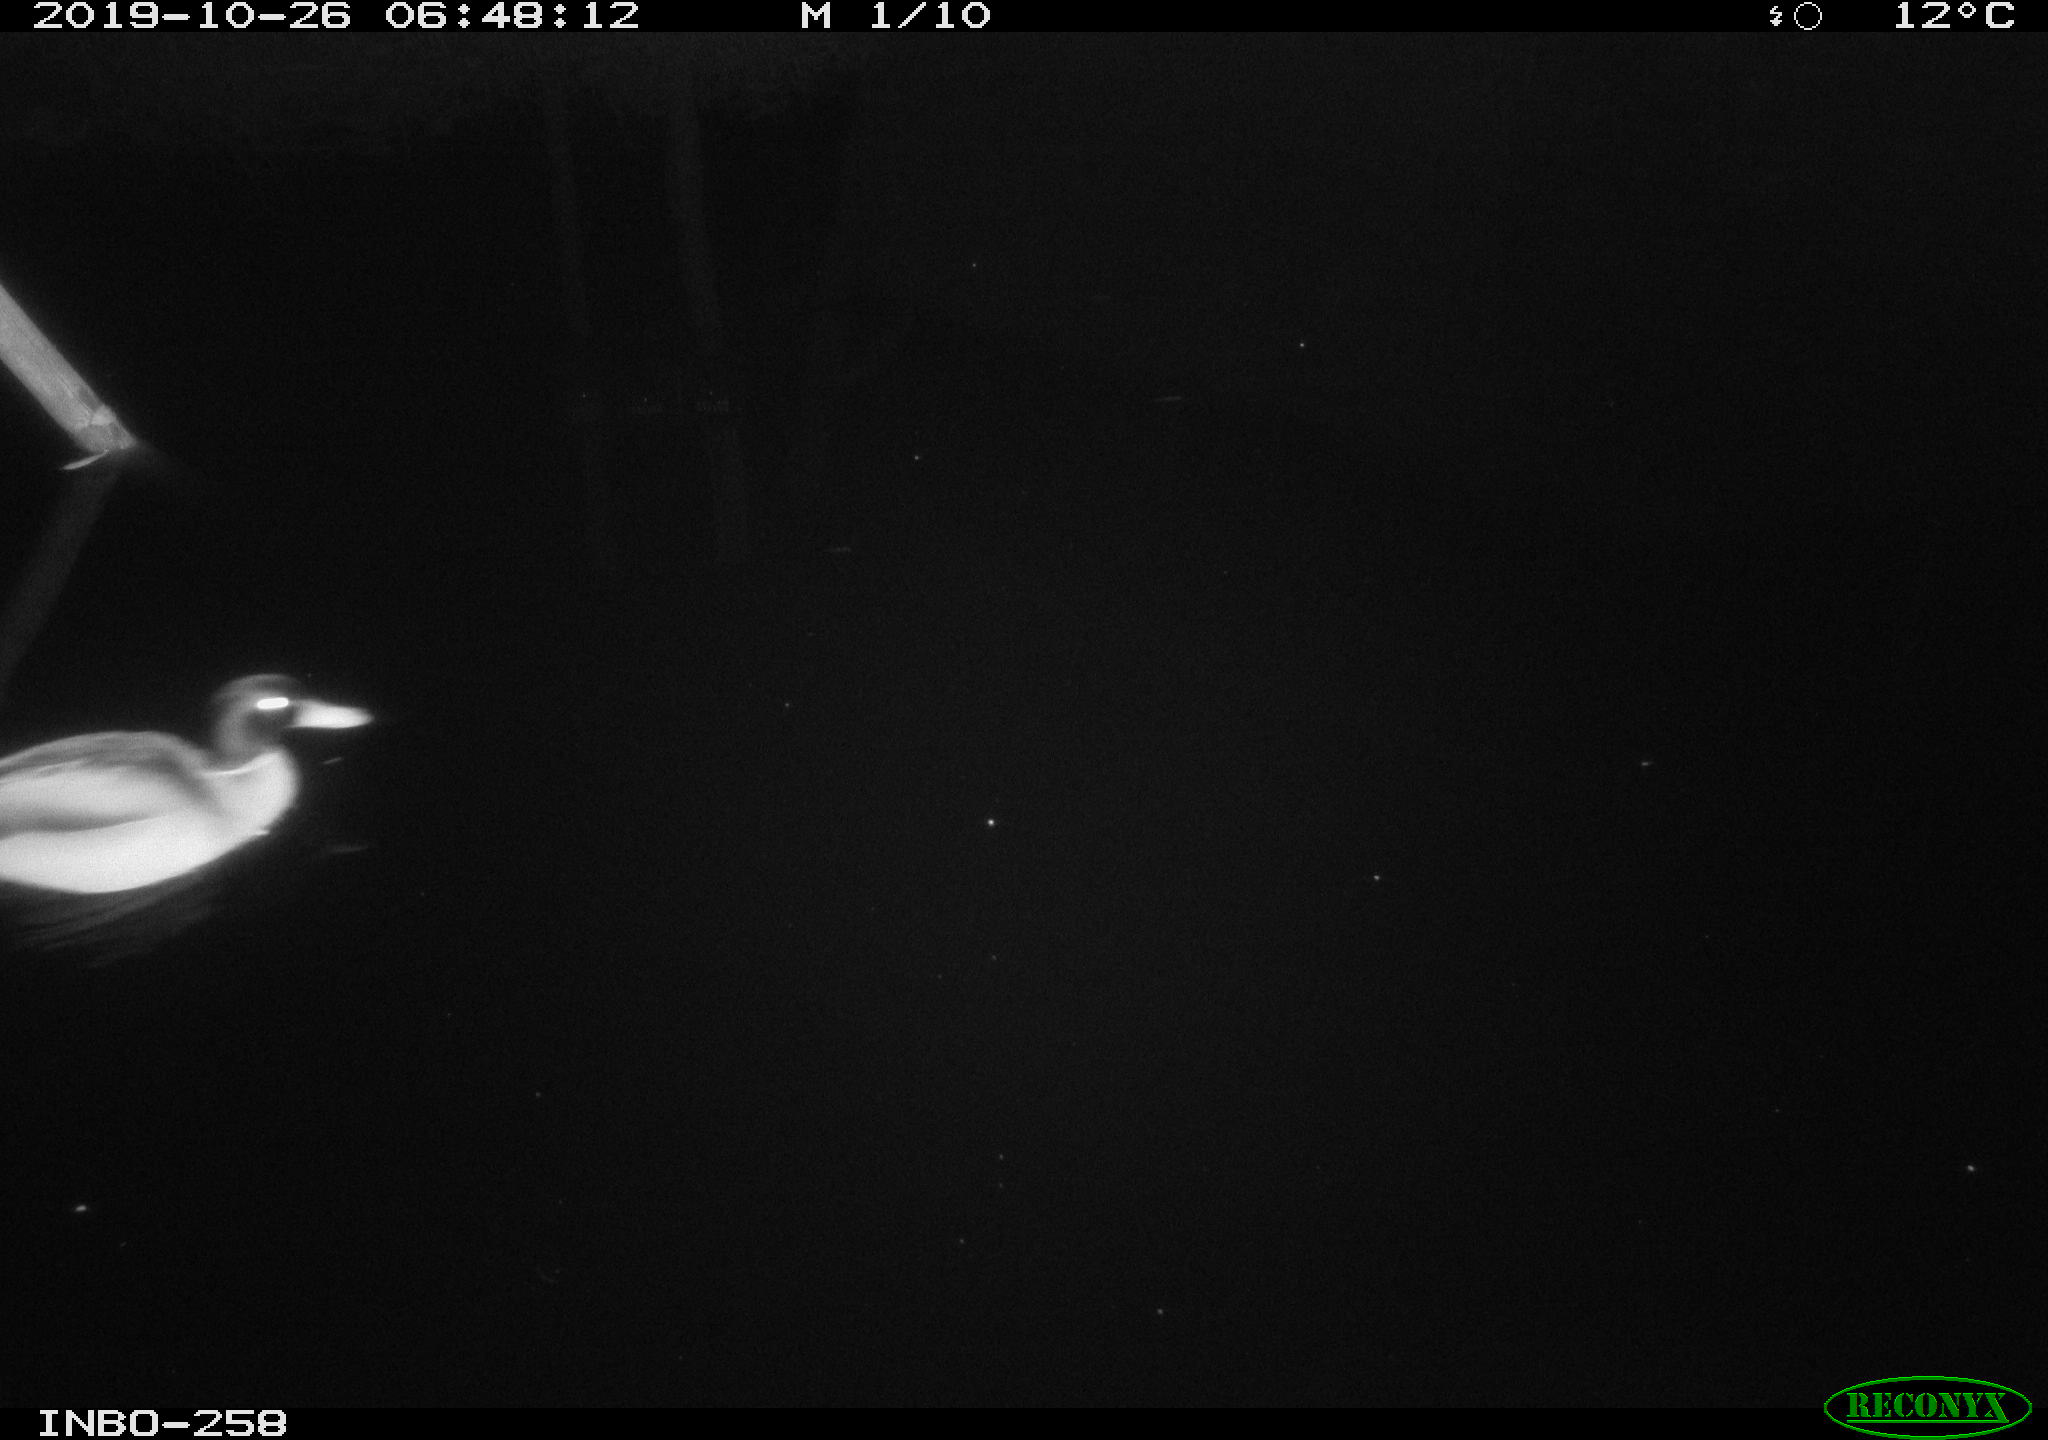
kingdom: Animalia
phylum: Chordata
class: Aves
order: Anseriformes
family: Anatidae
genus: Anas
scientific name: Anas platyrhynchos
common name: Mallard
